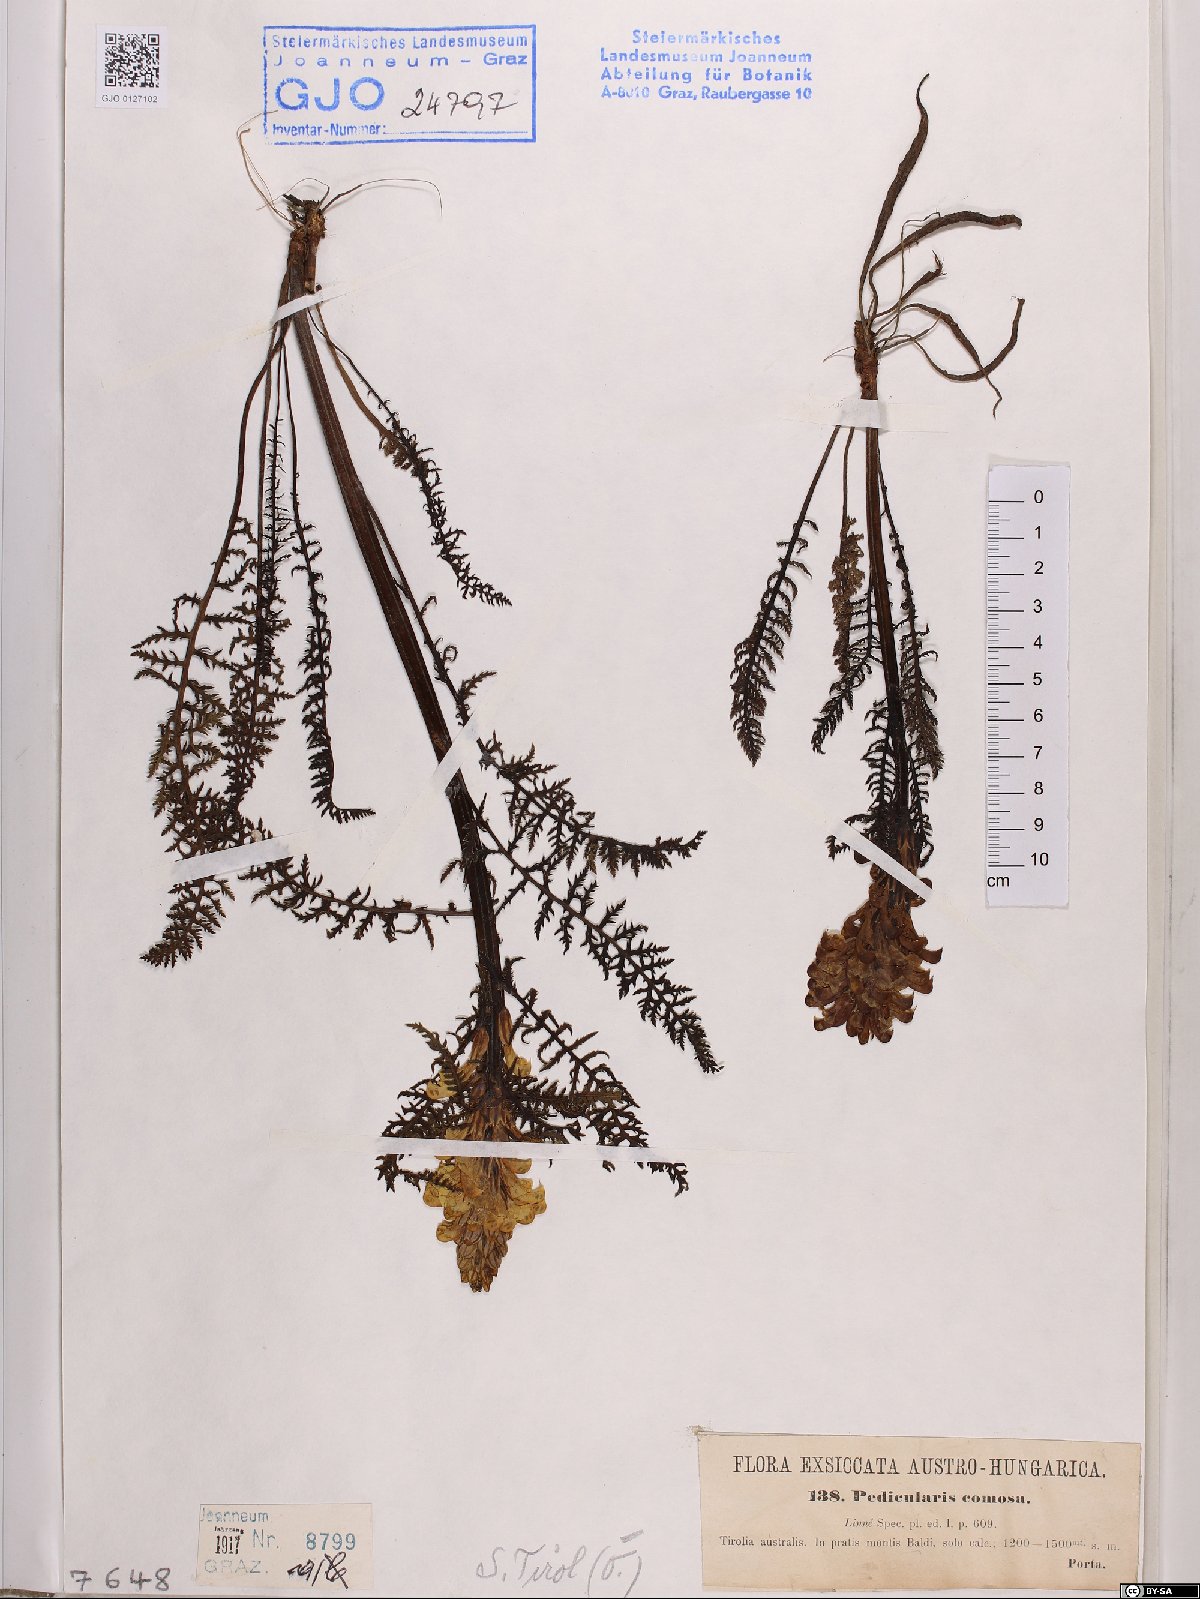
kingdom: Plantae
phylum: Tracheophyta
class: Magnoliopsida
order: Lamiales
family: Orobanchaceae
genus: Pedicularis
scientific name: Pedicularis comosa
